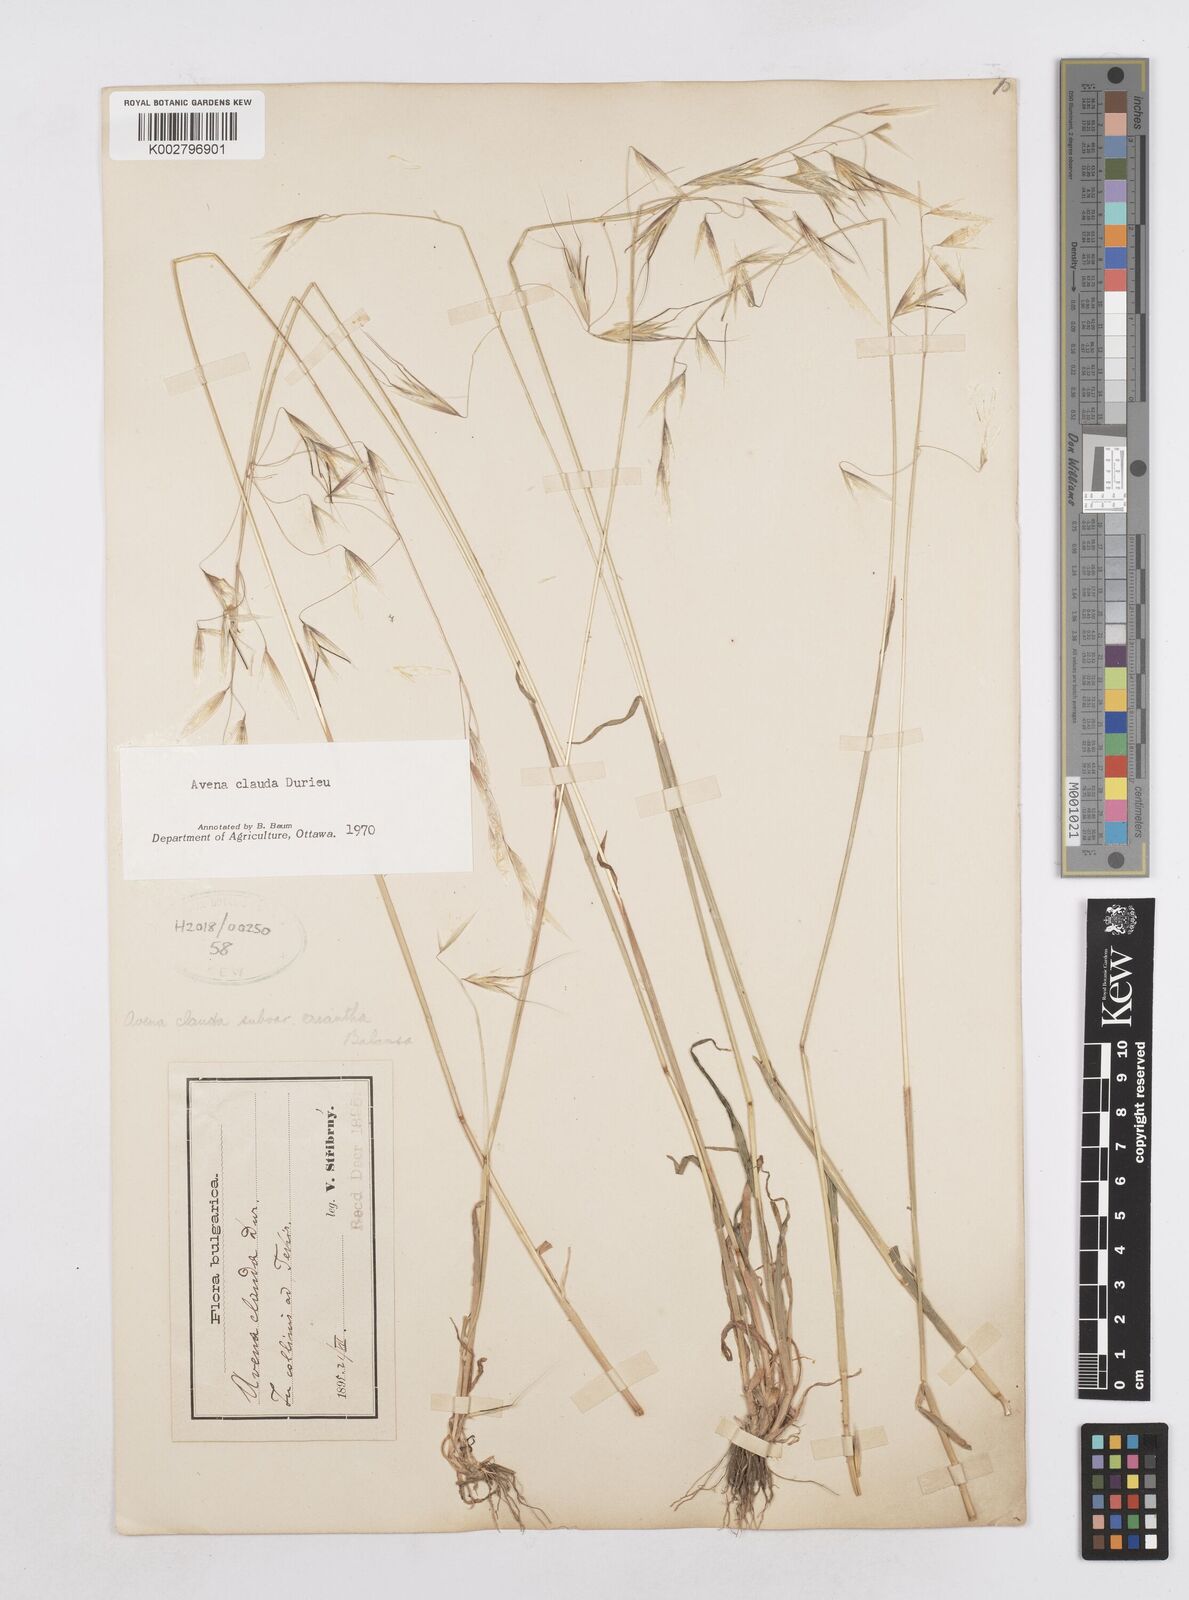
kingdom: Plantae
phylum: Tracheophyta
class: Liliopsida
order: Poales
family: Poaceae
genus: Avena
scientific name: Avena clauda
